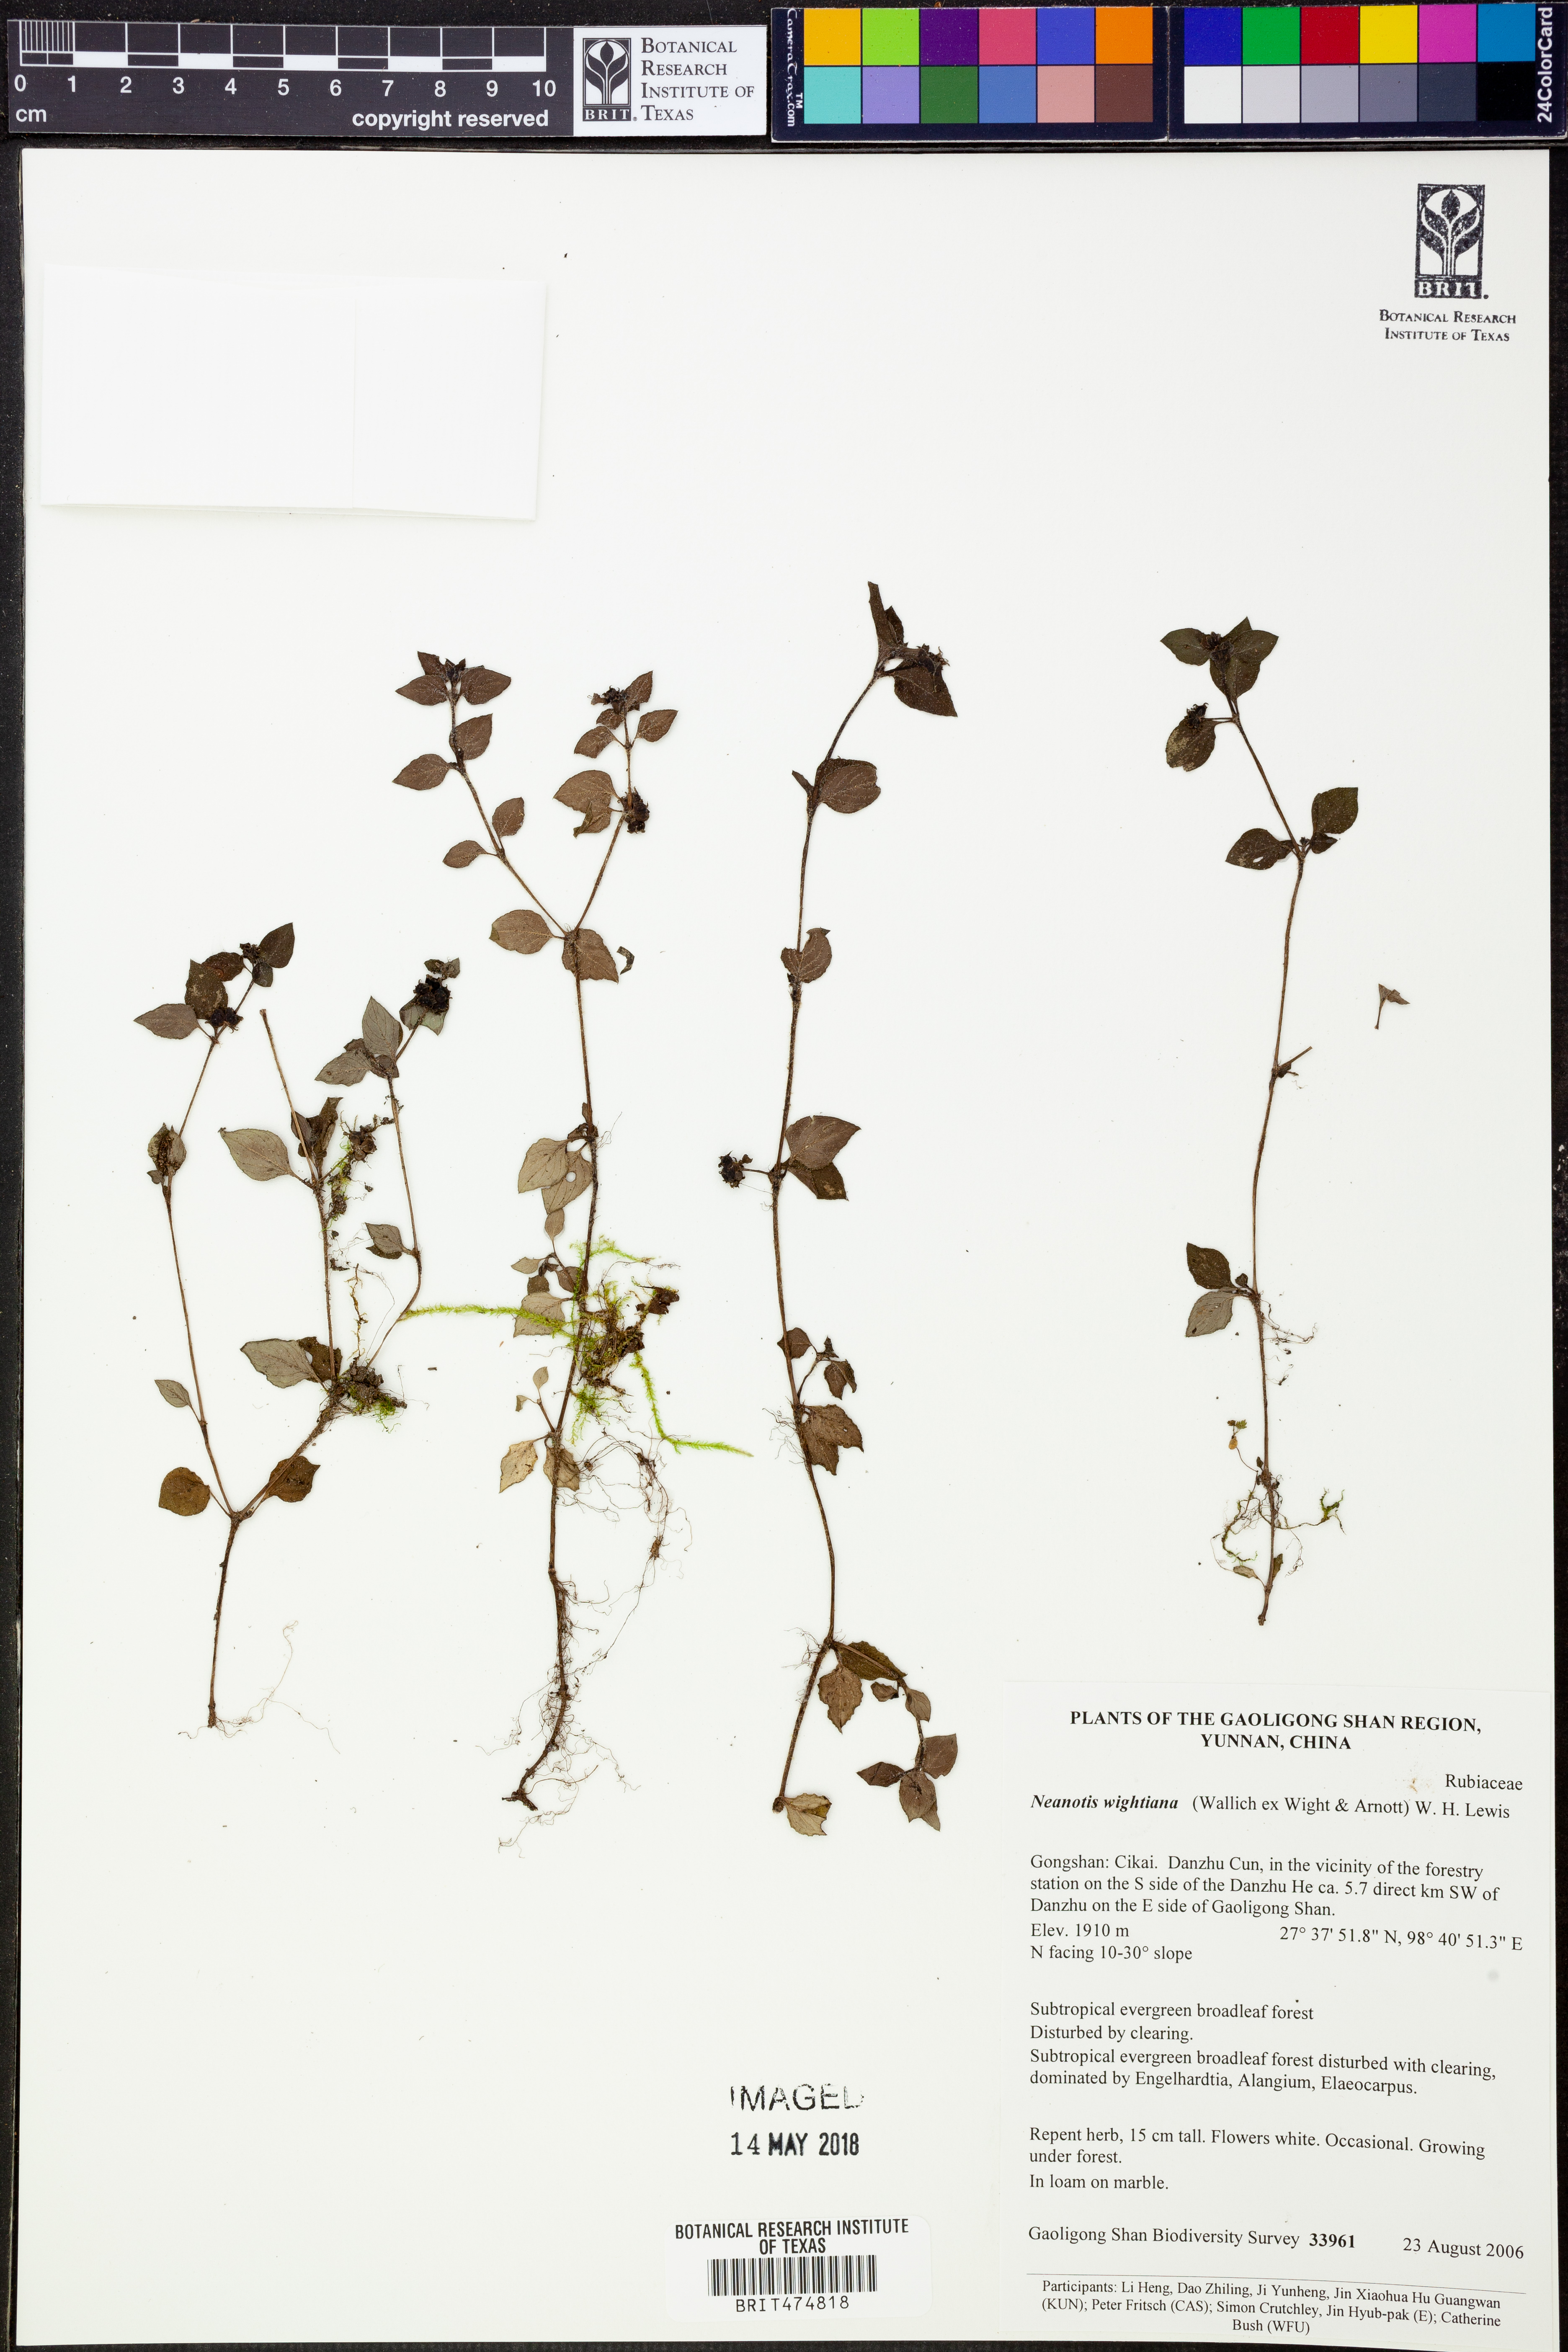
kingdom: Plantae
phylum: Tracheophyta
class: Magnoliopsida
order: Gentianales
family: Rubiaceae
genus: Neanotis
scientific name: Neanotis wightiana
